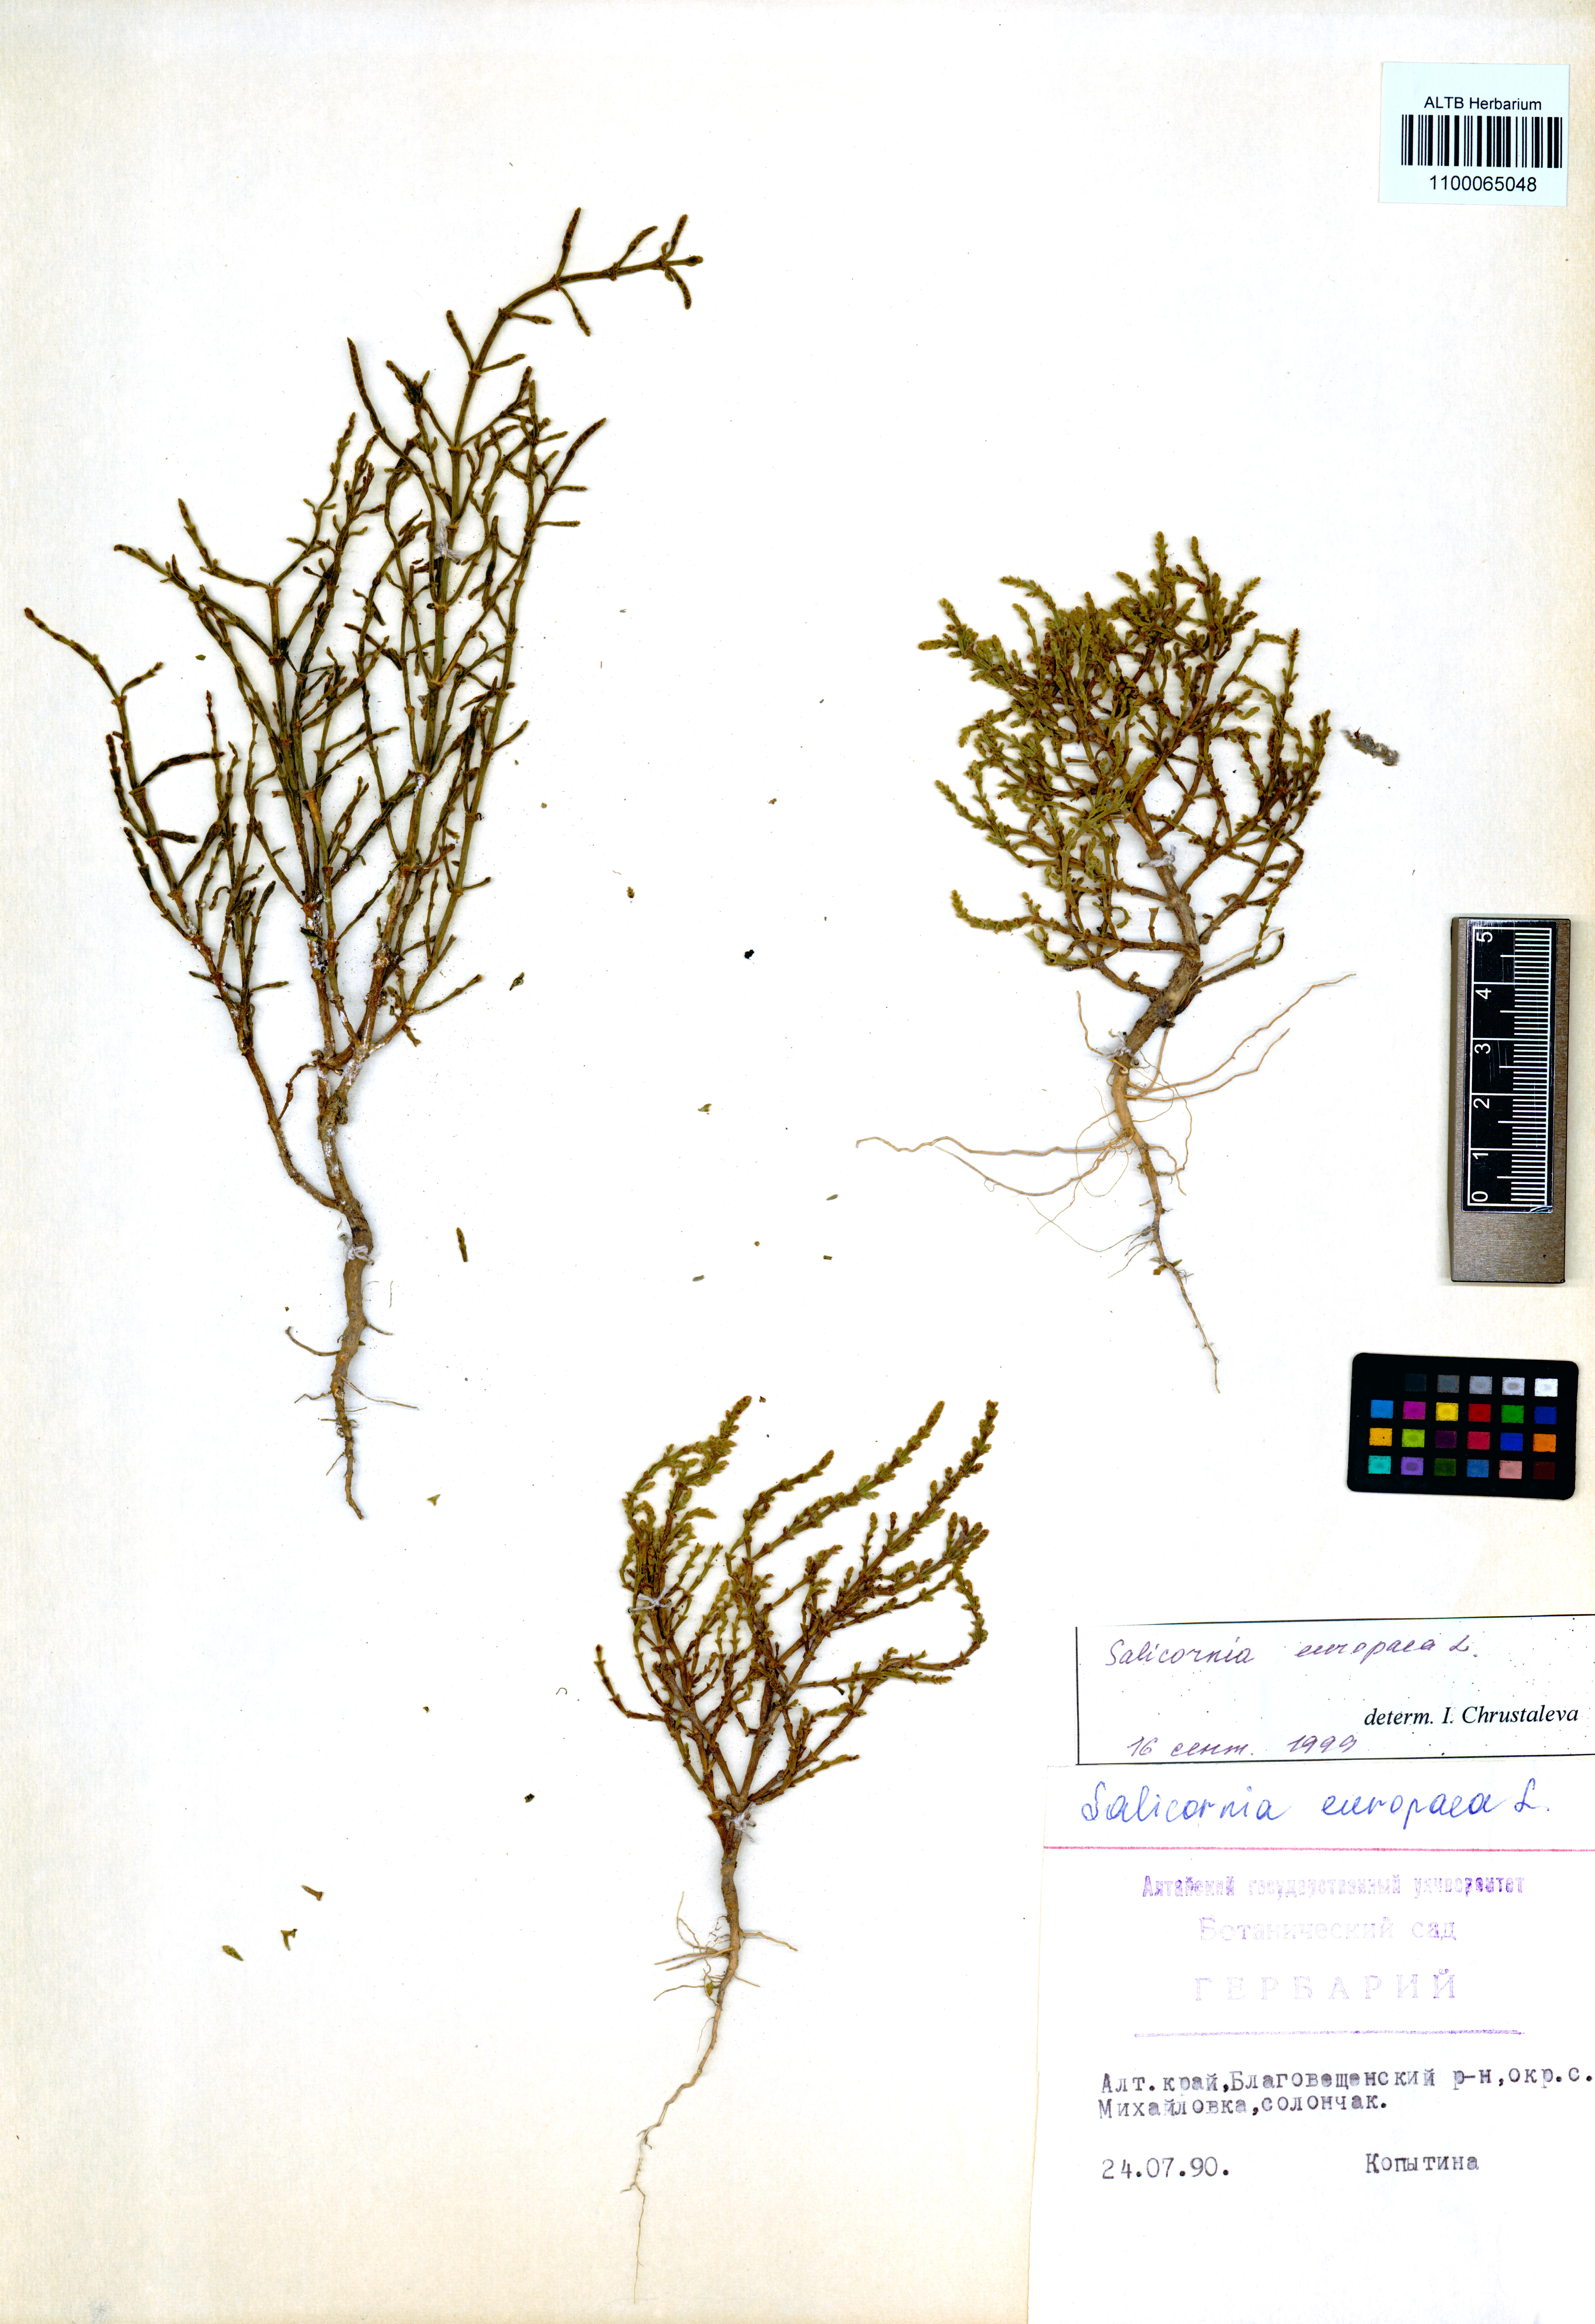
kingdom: Plantae
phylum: Tracheophyta
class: Magnoliopsida
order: Caryophyllales
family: Amaranthaceae
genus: Salicornia
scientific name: Salicornia europaea
